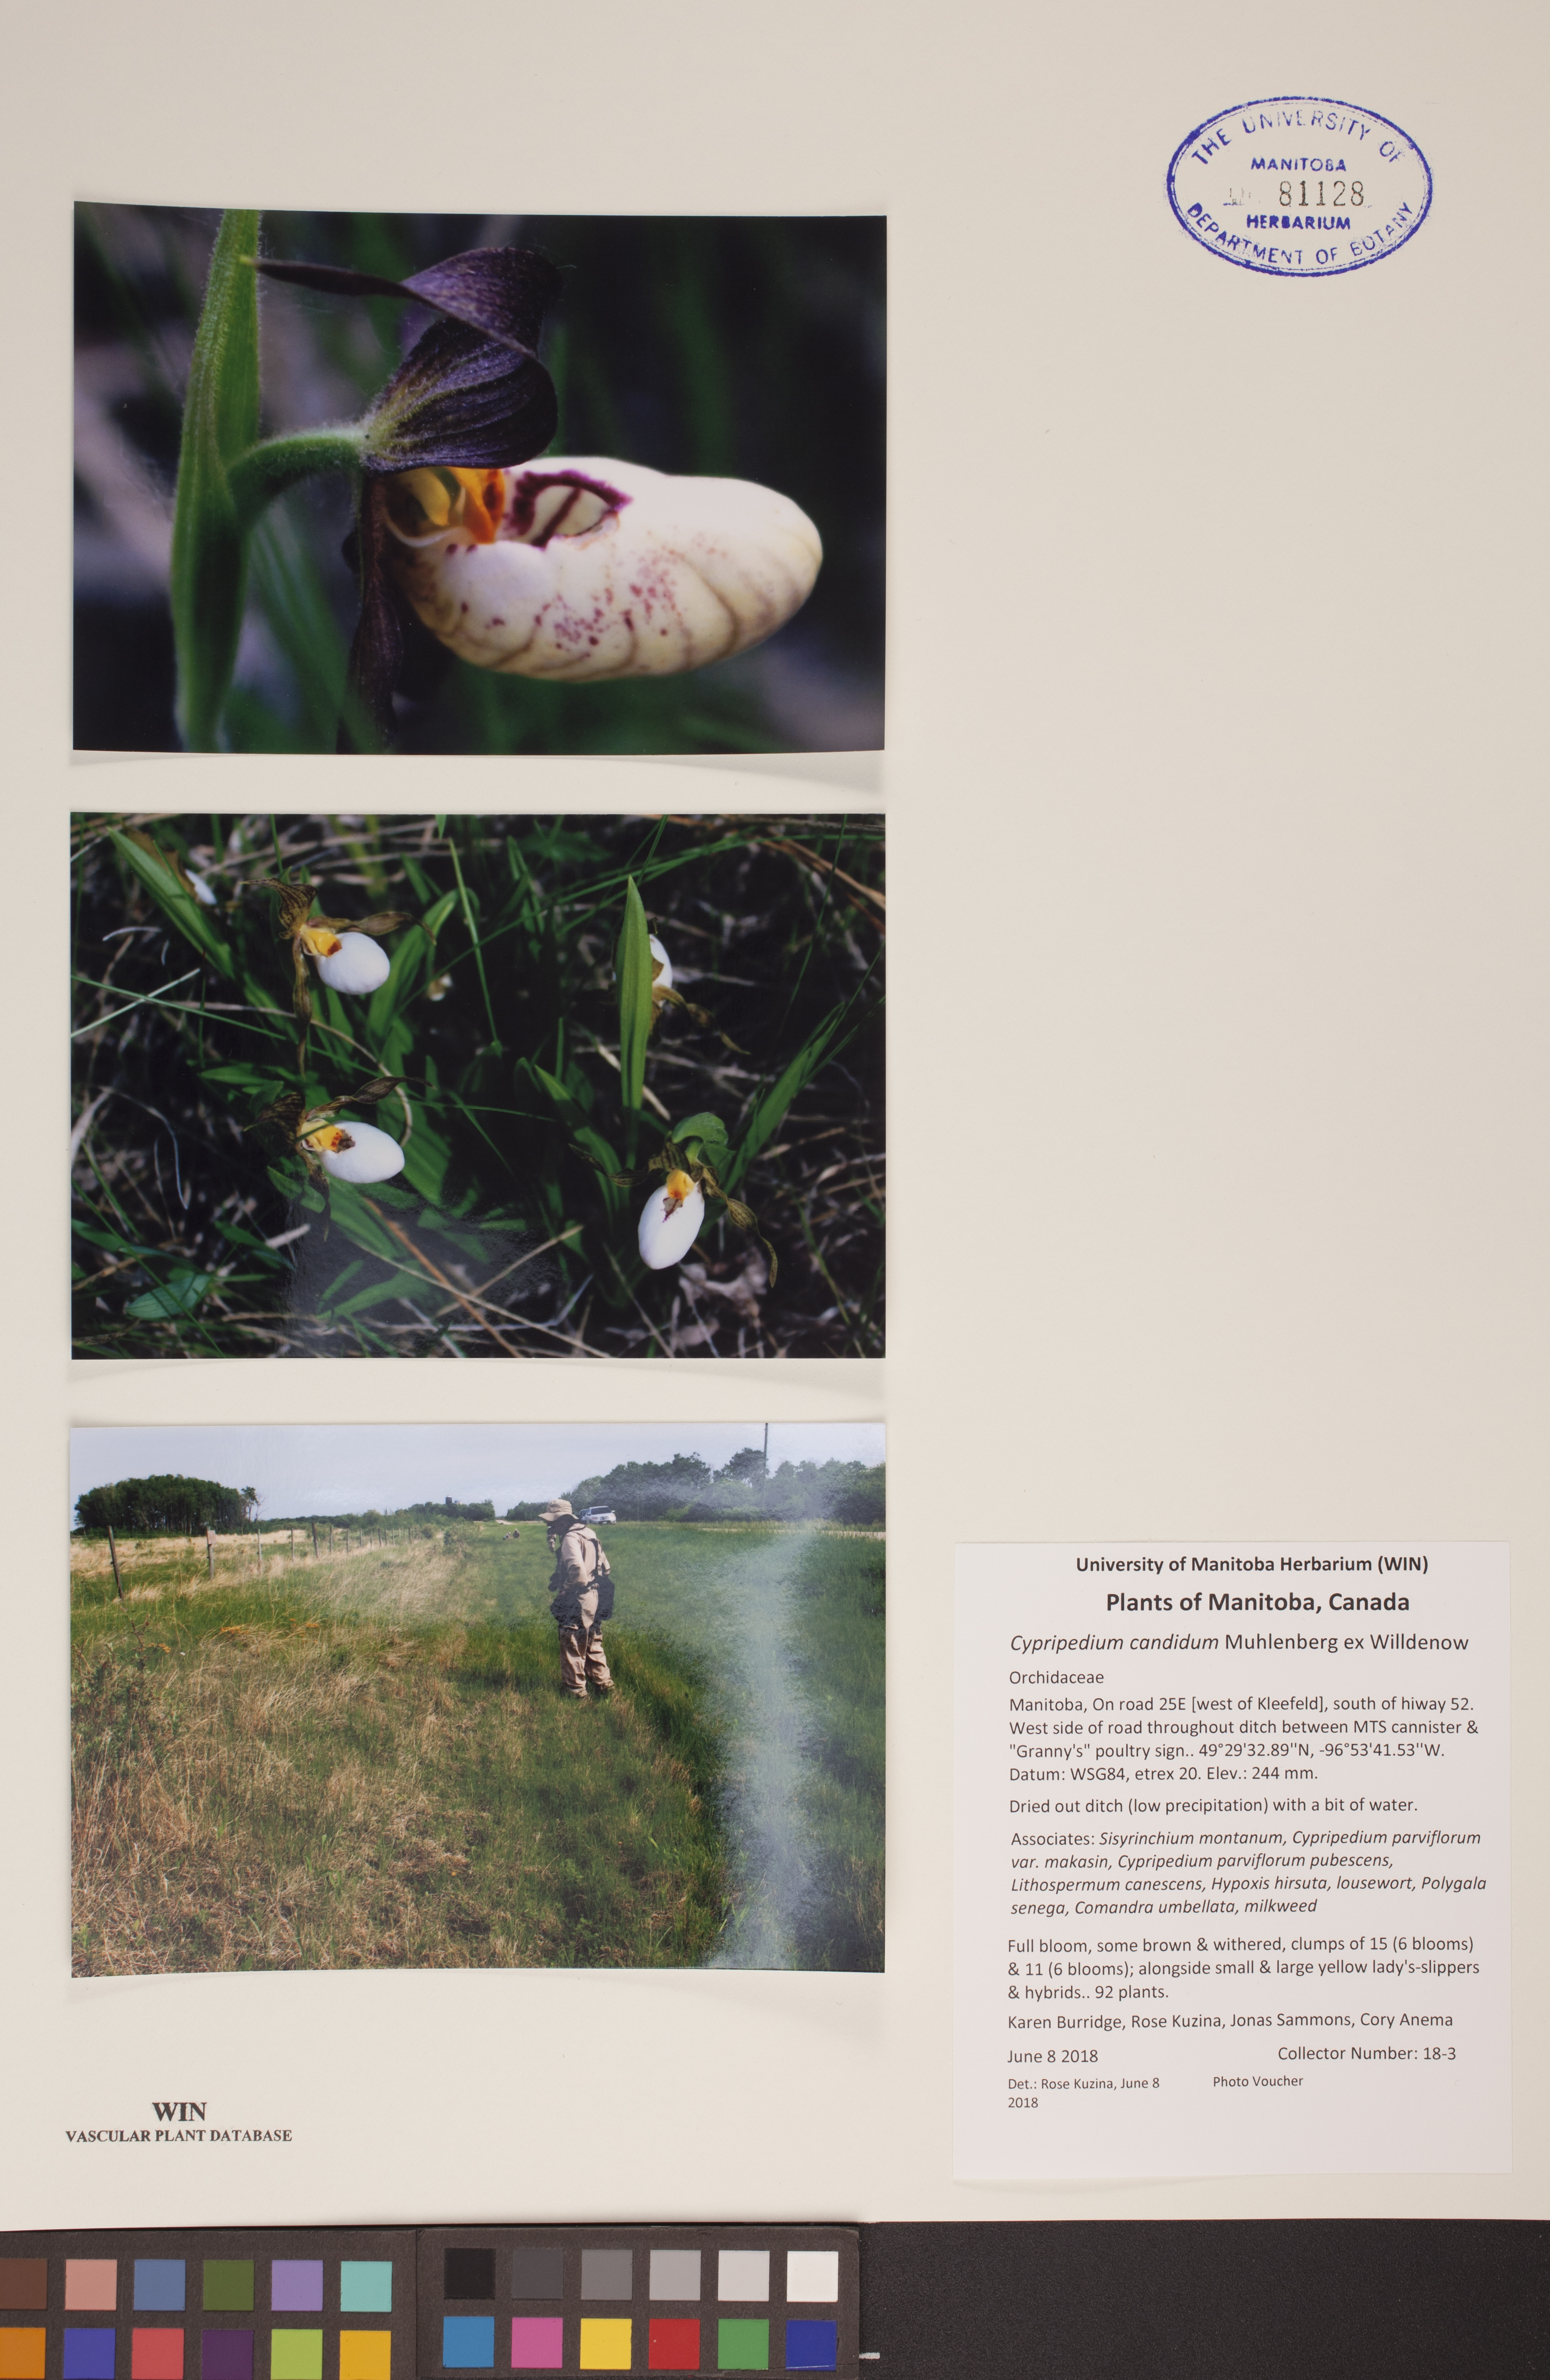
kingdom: Plantae
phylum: Tracheophyta
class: Liliopsida
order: Asparagales
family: Orchidaceae
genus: Cypripedium
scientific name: Cypripedium candidum
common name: White lady's-slipper
